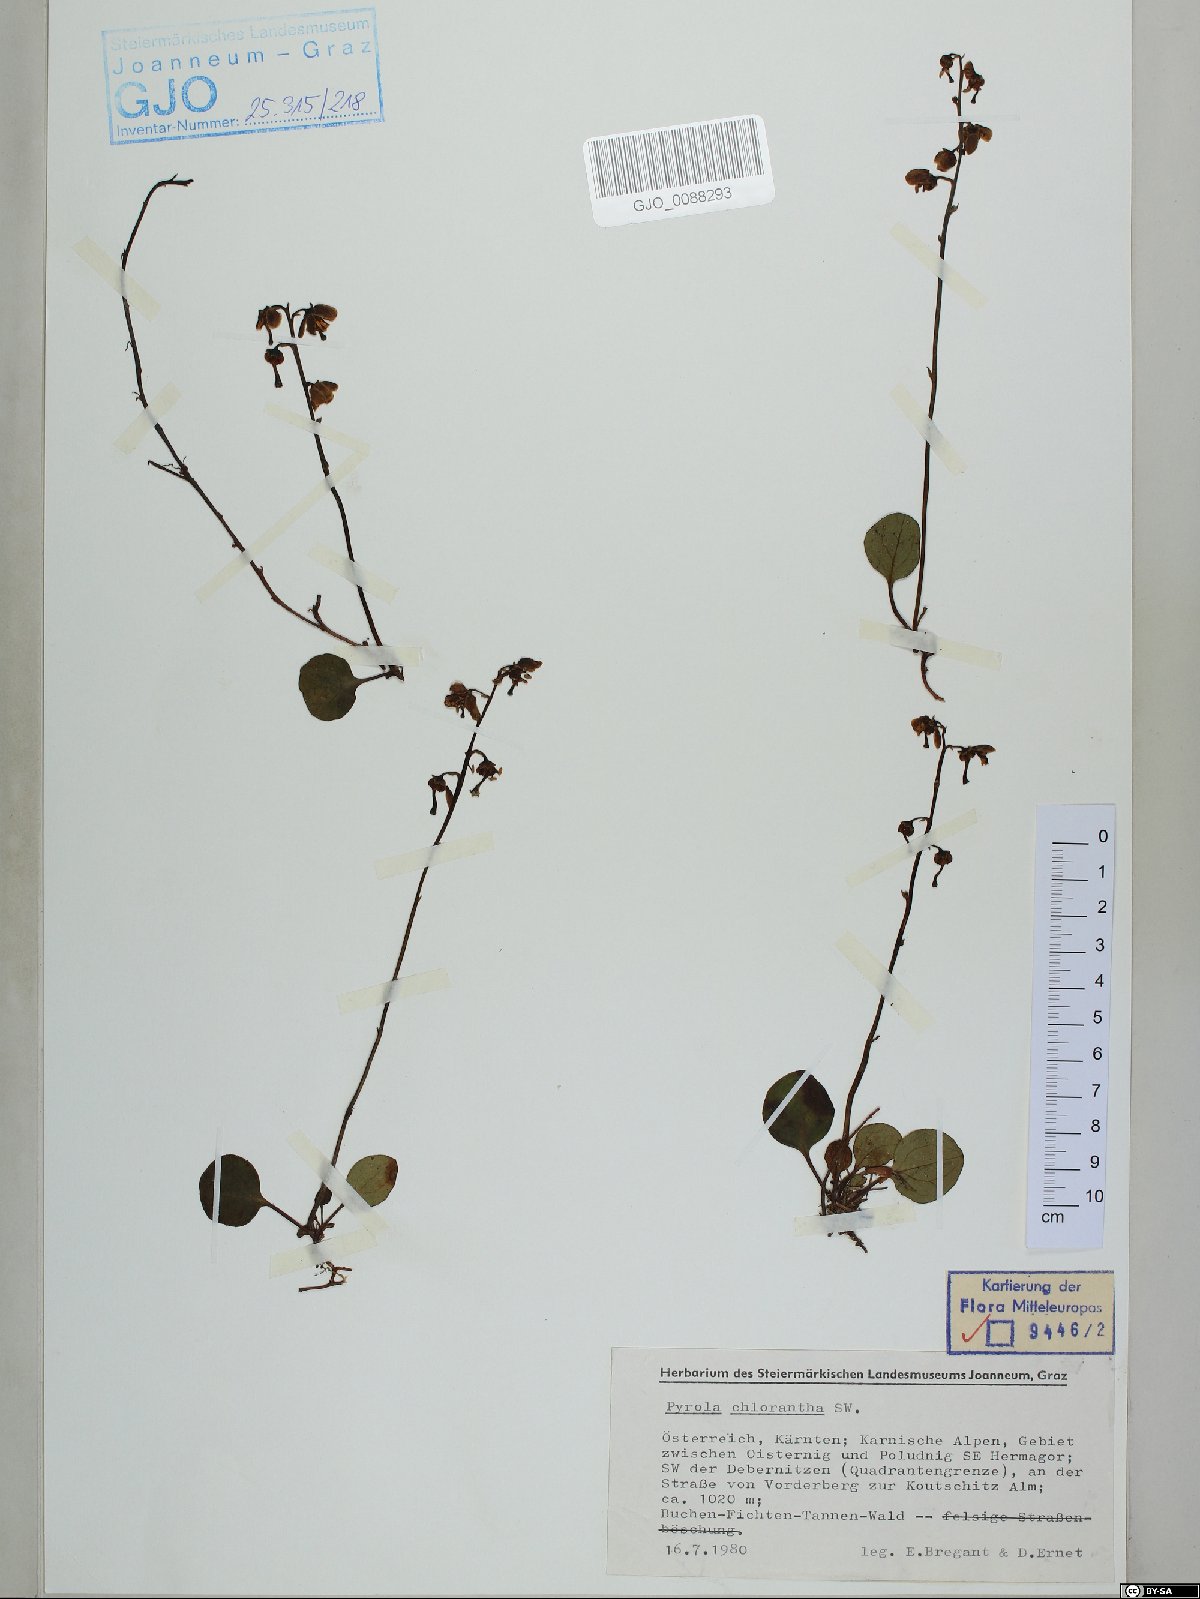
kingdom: Plantae
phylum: Tracheophyta
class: Magnoliopsida
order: Ericales
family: Ericaceae
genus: Pyrola
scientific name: Pyrola chlorantha
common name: Green wintergreen
